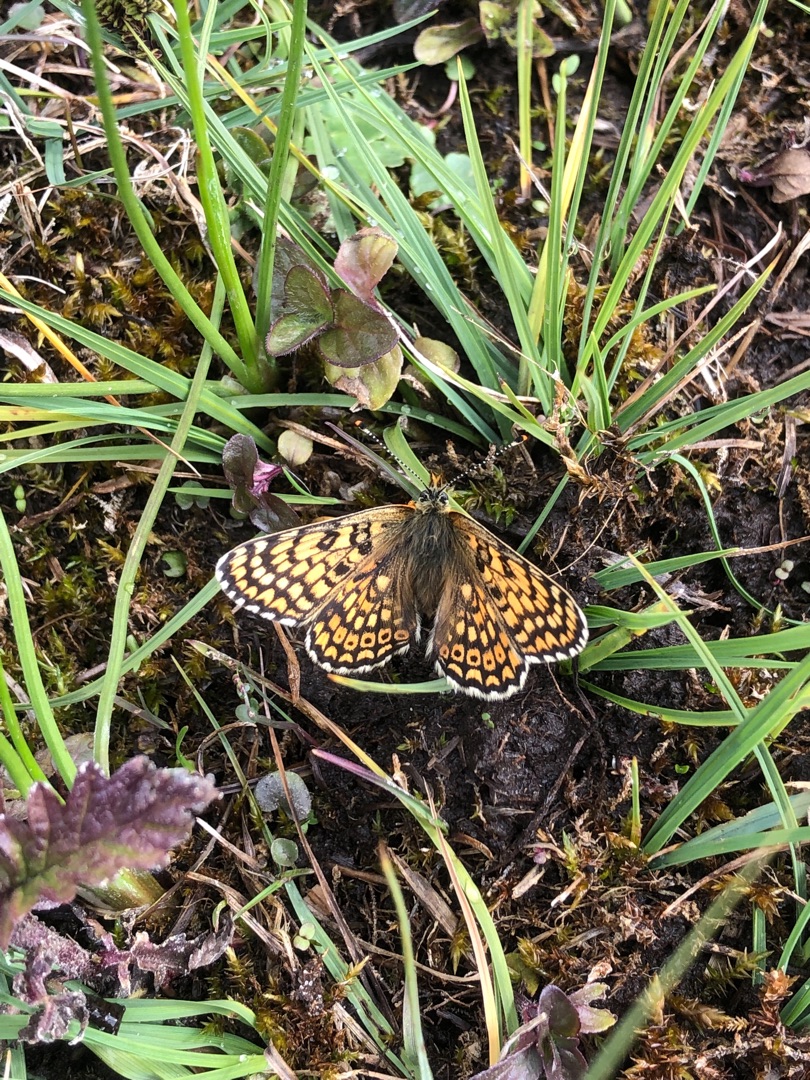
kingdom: Animalia
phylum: Arthropoda
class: Insecta
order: Lepidoptera
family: Nymphalidae
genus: Melitaea
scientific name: Melitaea cinxia
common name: Okkergul pletvinge
